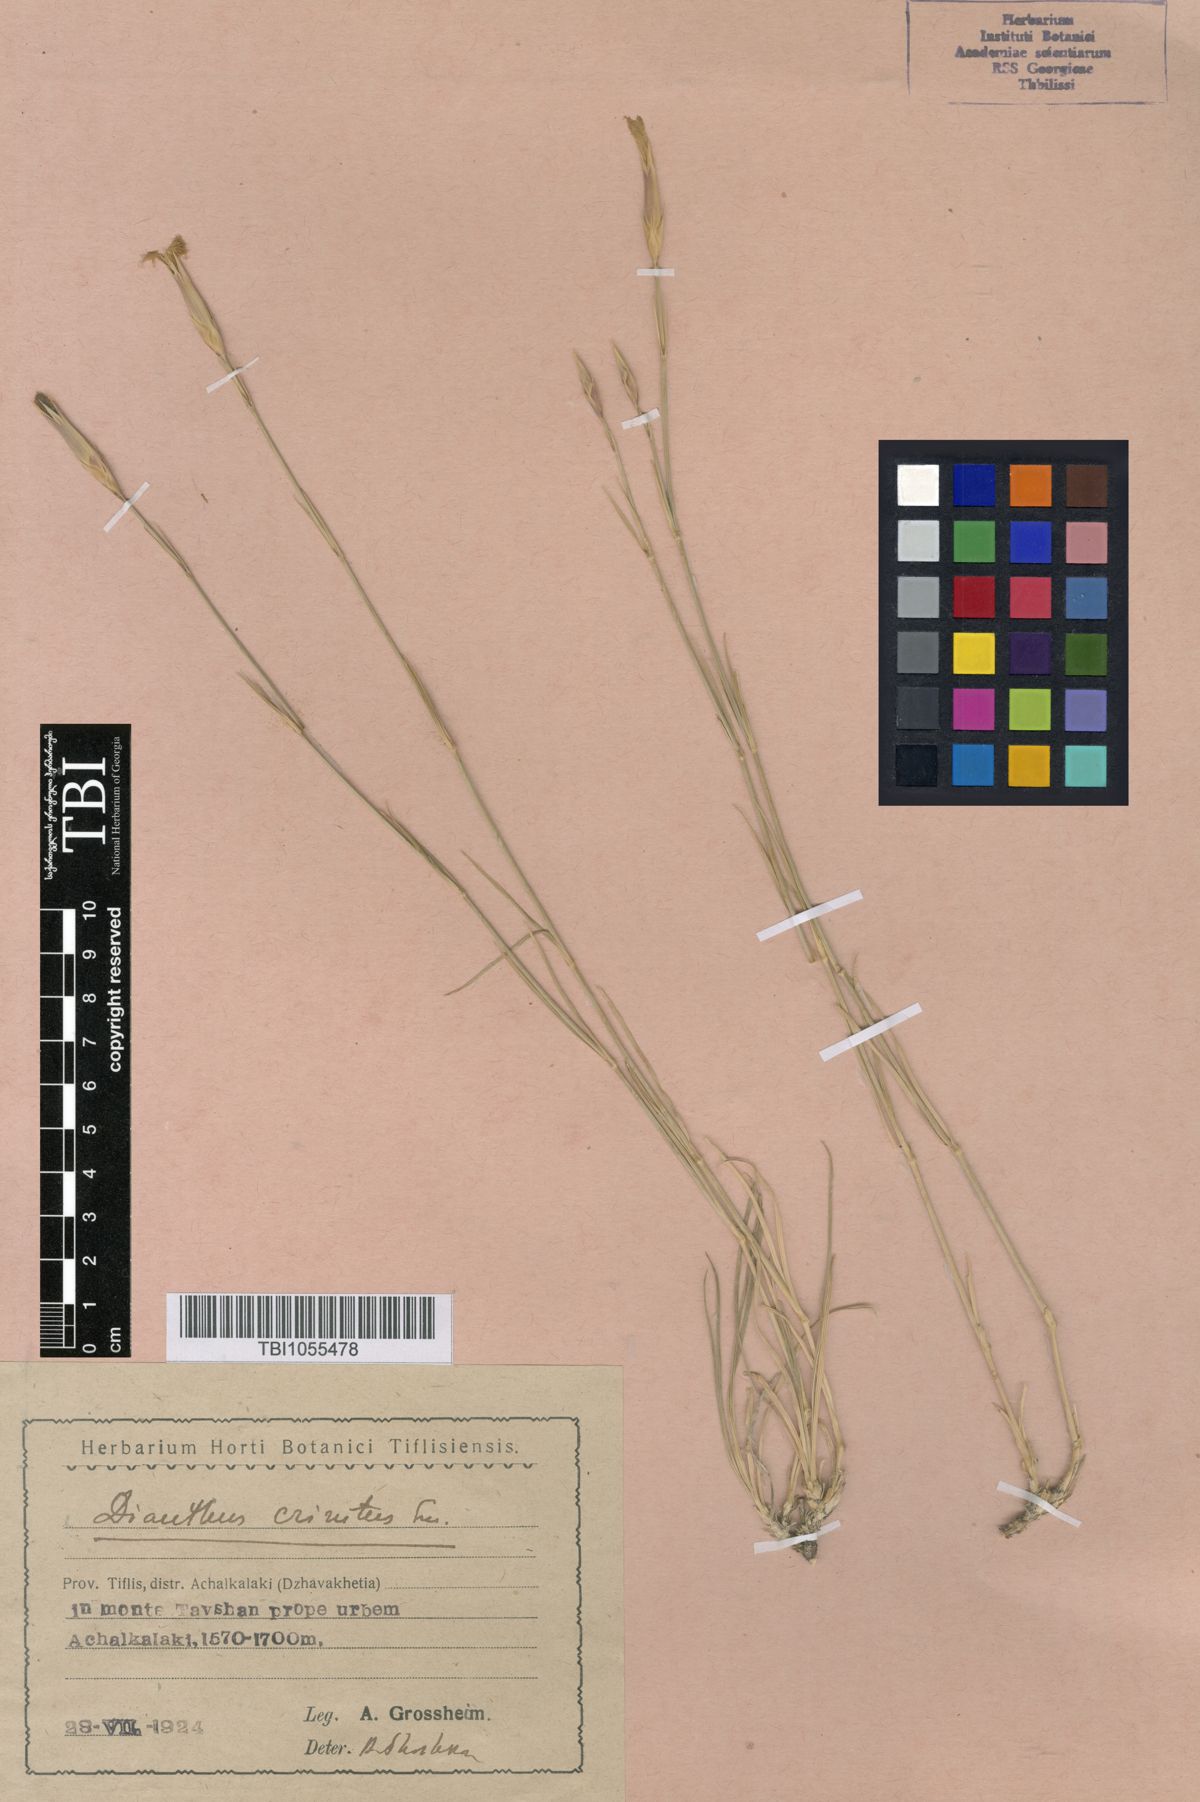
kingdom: Plantae
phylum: Tracheophyta
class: Magnoliopsida
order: Caryophyllales
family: Caryophyllaceae
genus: Dianthus
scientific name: Dianthus crinitus
